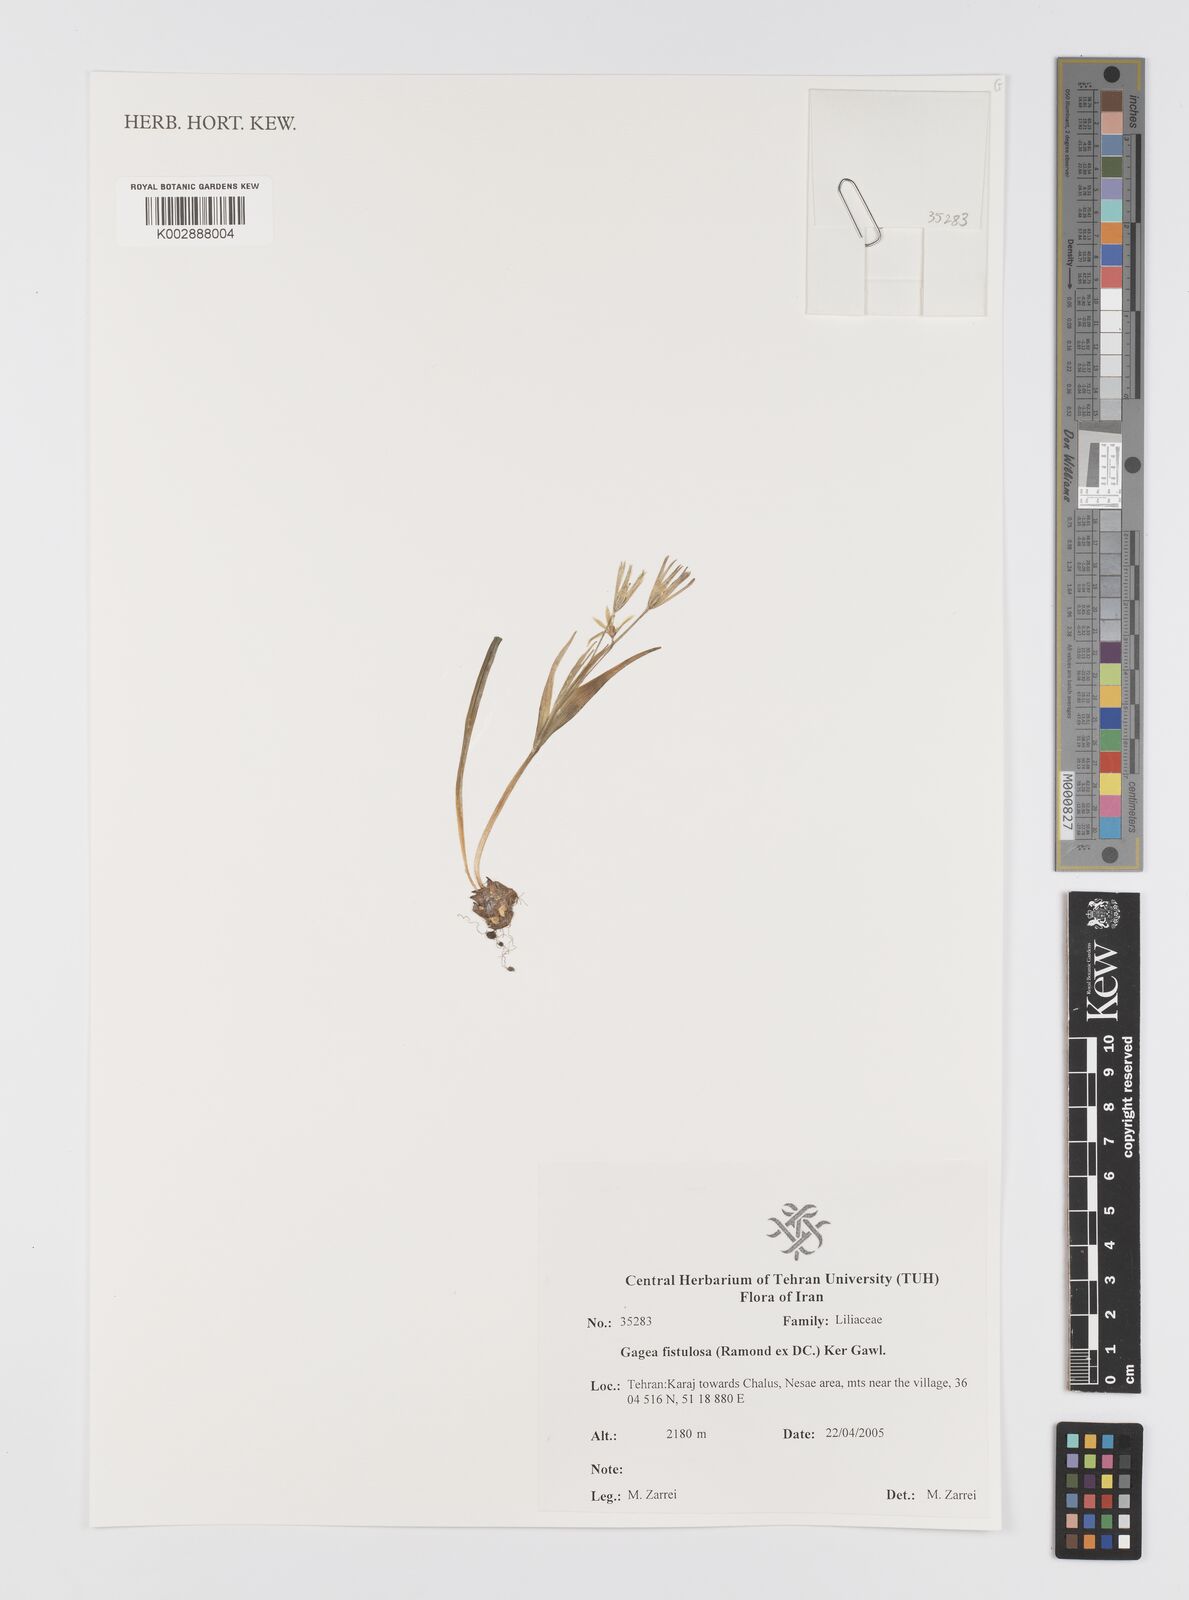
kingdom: Plantae
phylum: Tracheophyta
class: Liliopsida
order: Liliales
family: Liliaceae
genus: Gagea
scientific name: Gagea bohemica
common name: Early star-of-bethlehem
